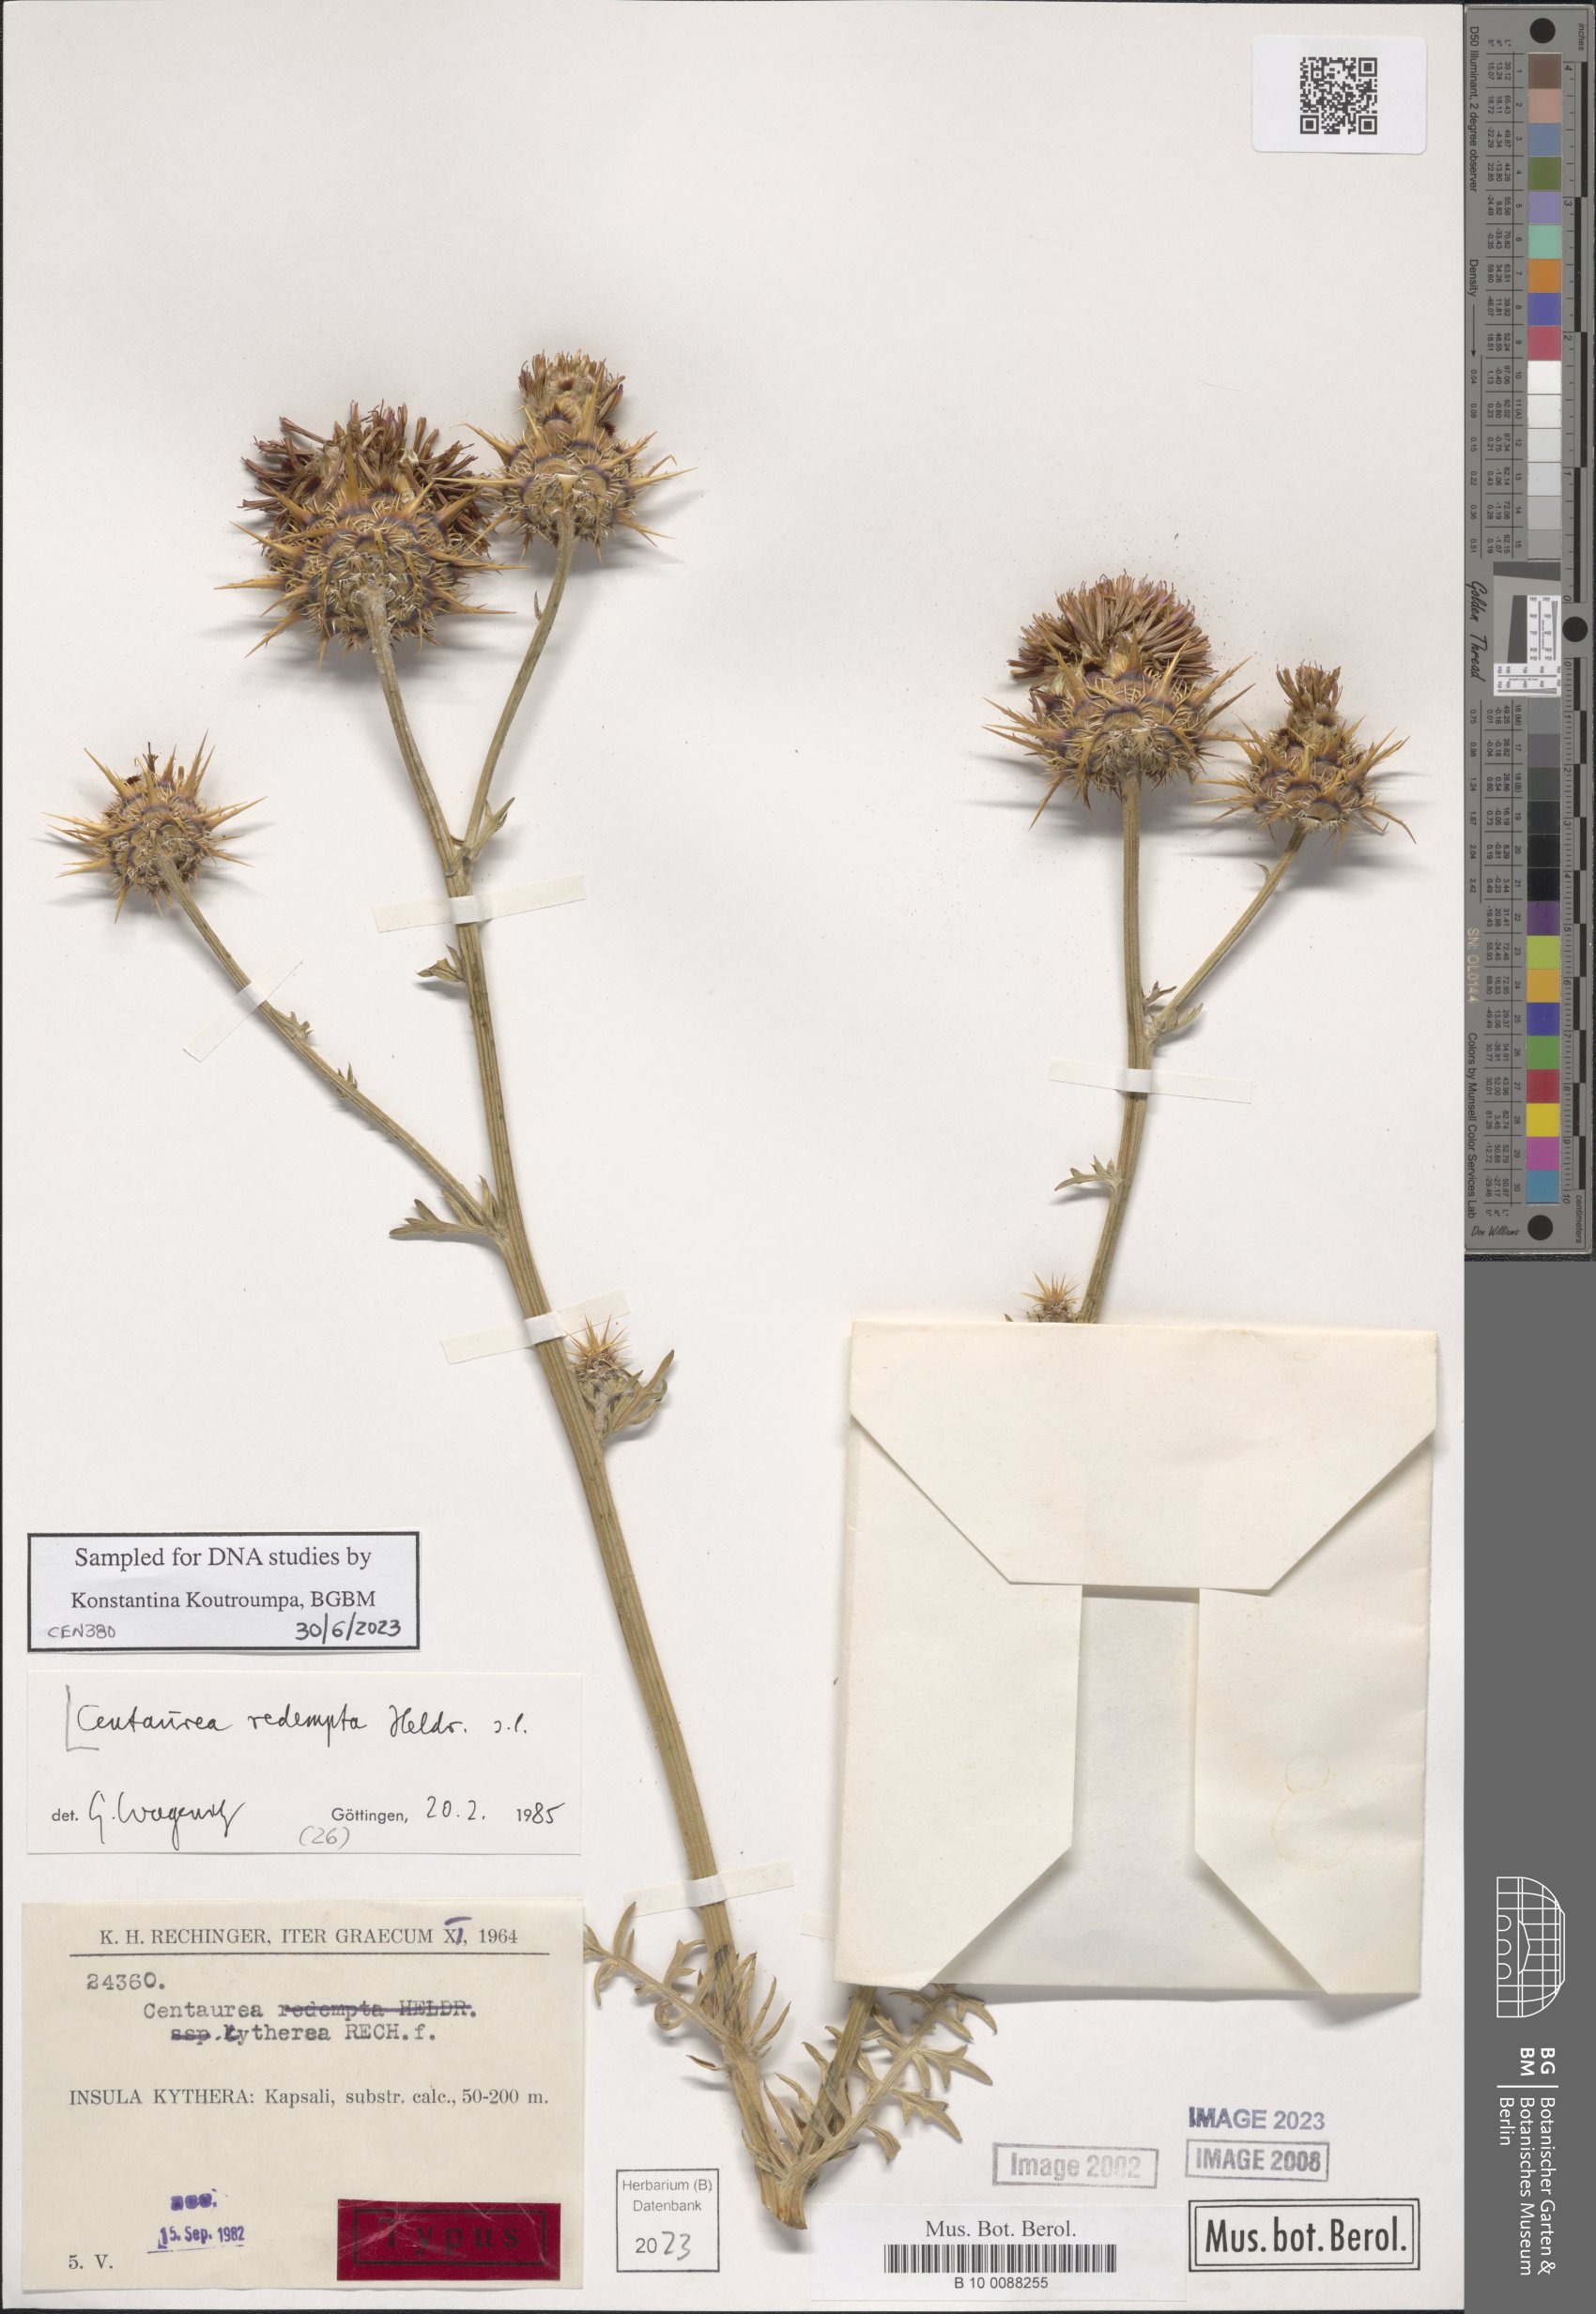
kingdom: Plantae
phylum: Tracheophyta
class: Magnoliopsida
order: Asterales
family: Asteraceae
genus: Centaurea
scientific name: Centaurea redempta
